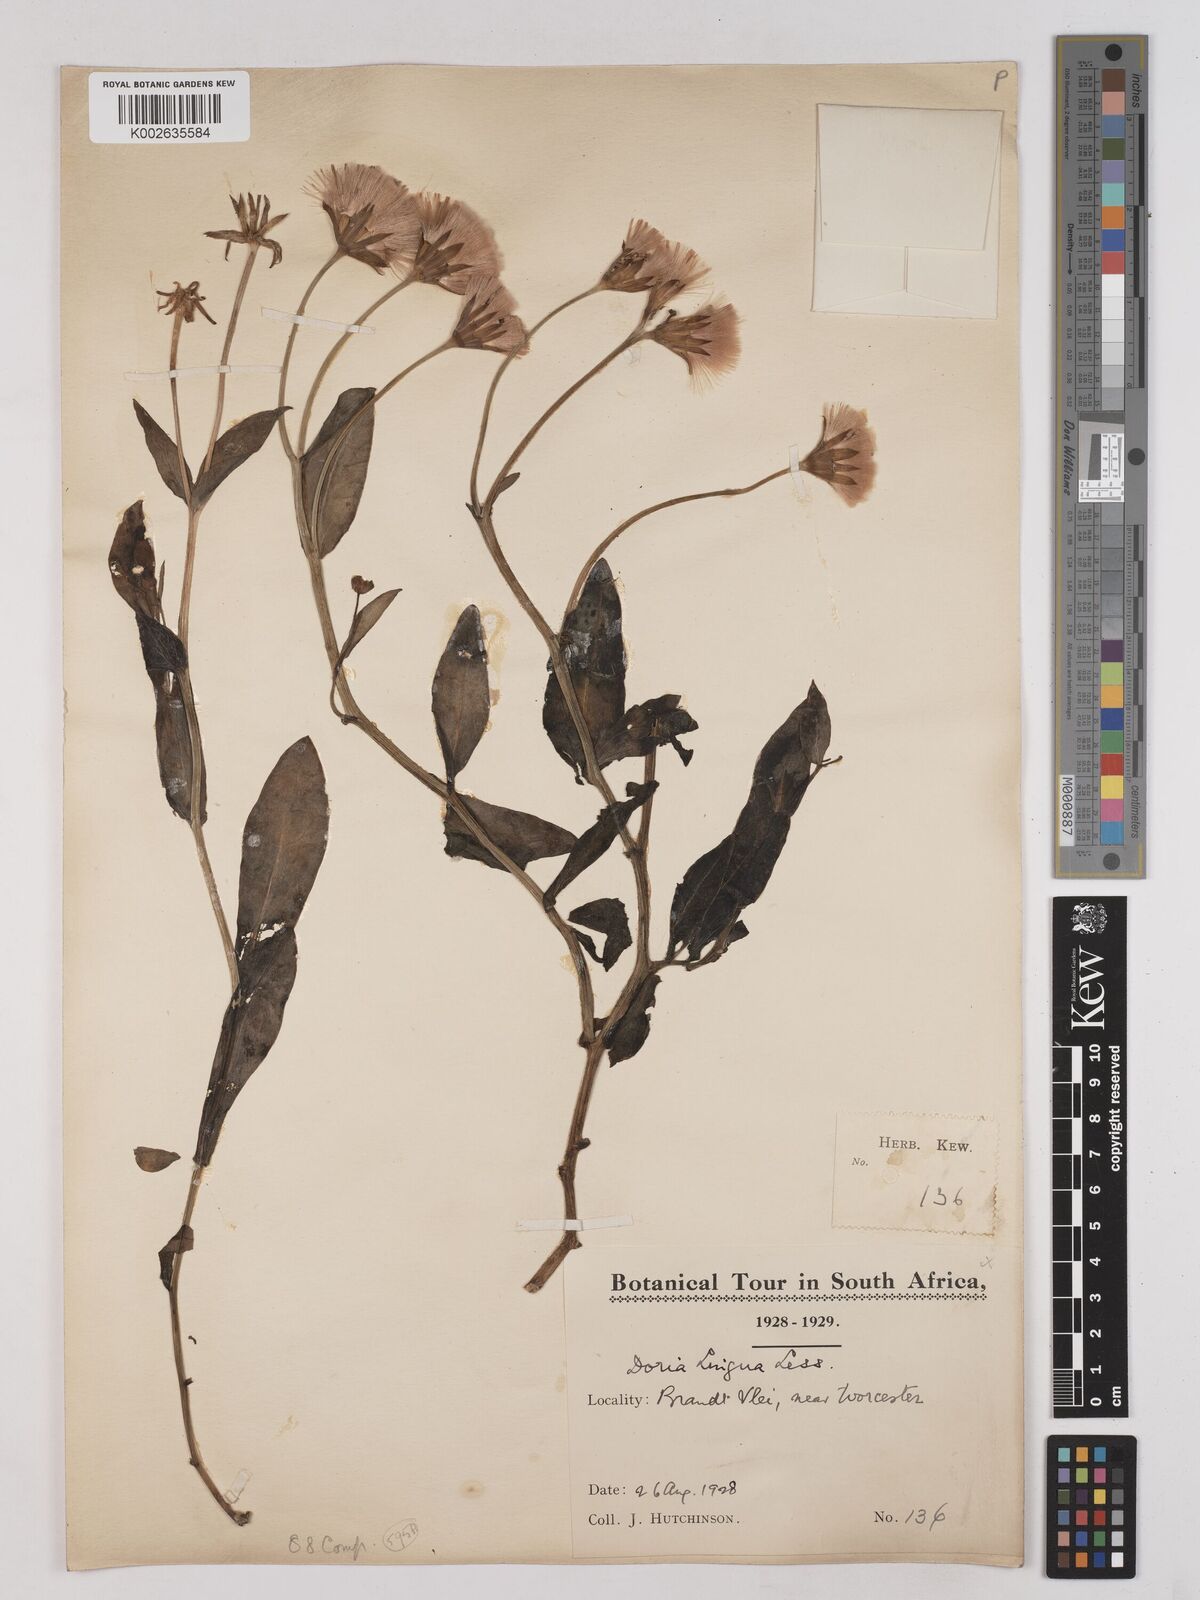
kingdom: Plantae
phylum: Tracheophyta
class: Magnoliopsida
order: Asterales
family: Asteraceae
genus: Othonna
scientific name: Othonna bulbosa
